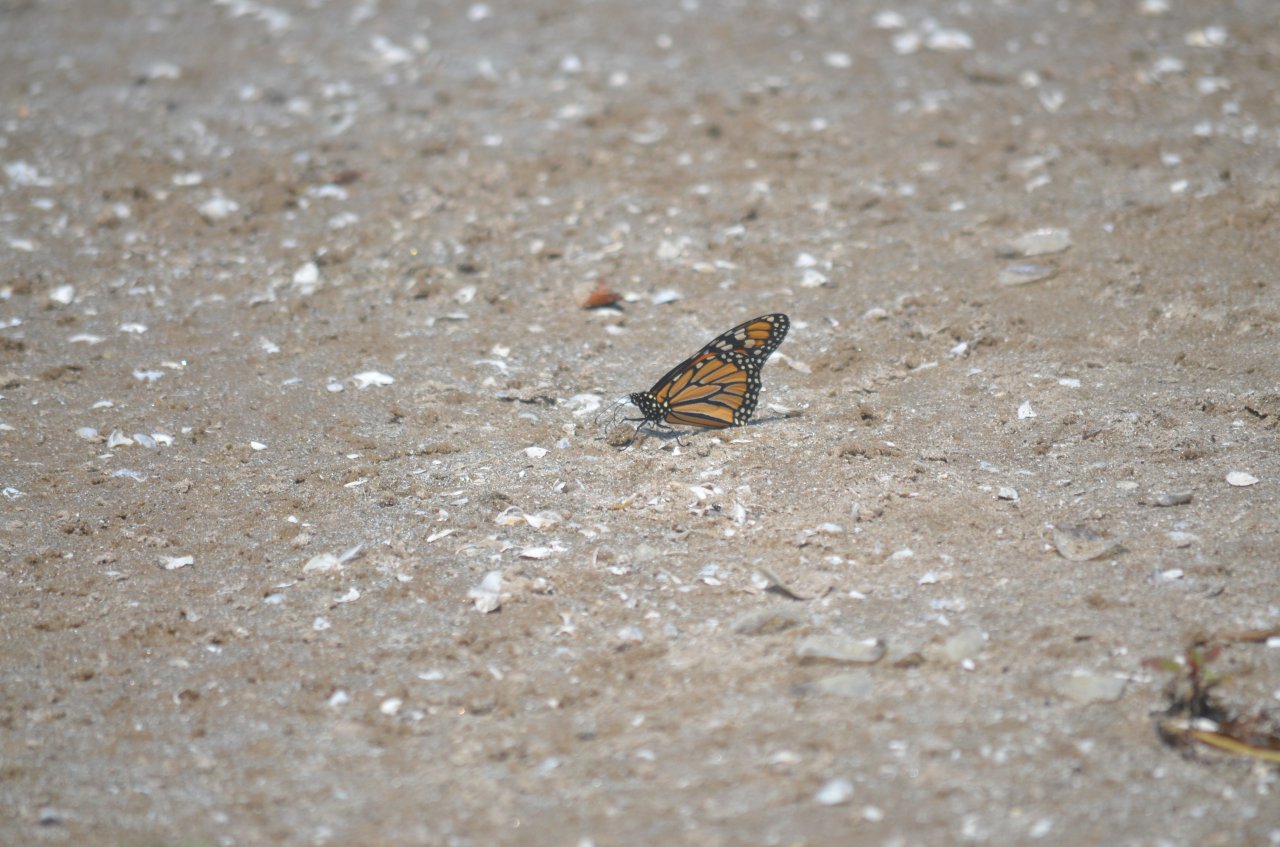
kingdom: Animalia
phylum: Arthropoda
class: Insecta
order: Lepidoptera
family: Nymphalidae
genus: Danaus
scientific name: Danaus plexippus
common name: Monarch
